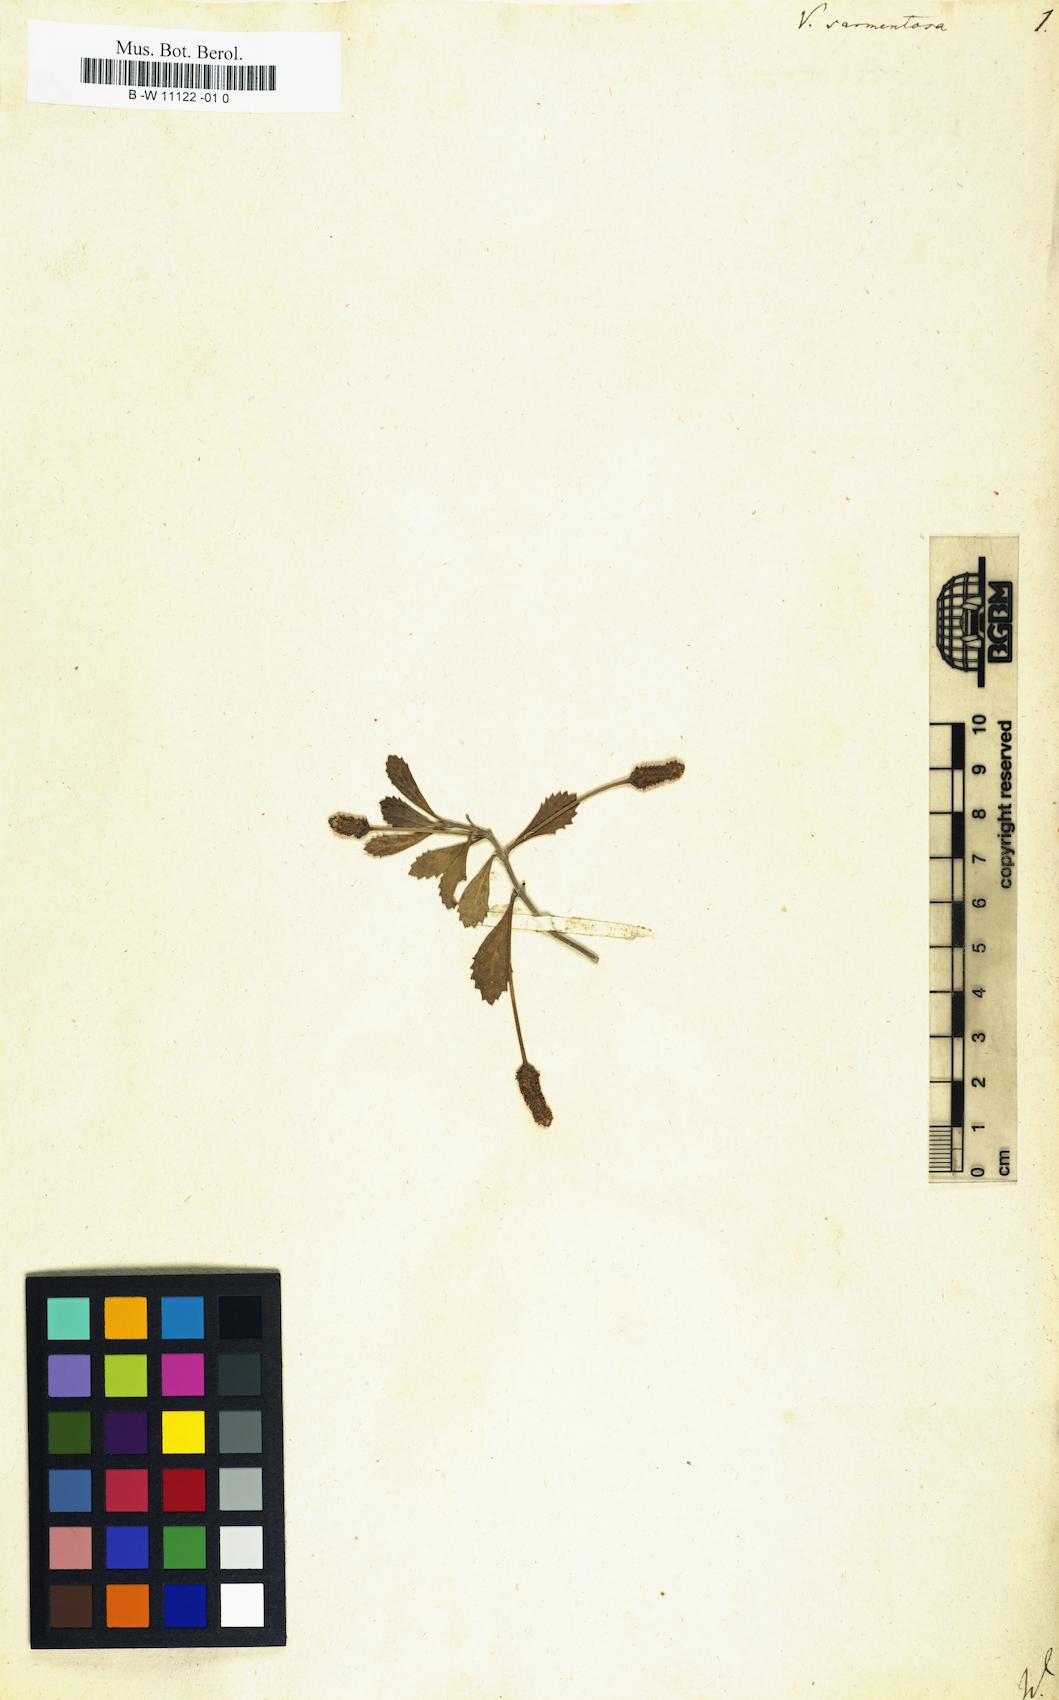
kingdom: Plantae
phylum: Tracheophyta
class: Magnoliopsida
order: Lamiales
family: Verbenaceae
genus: Phyla
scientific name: Phyla nodiflora
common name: Frogfruit
